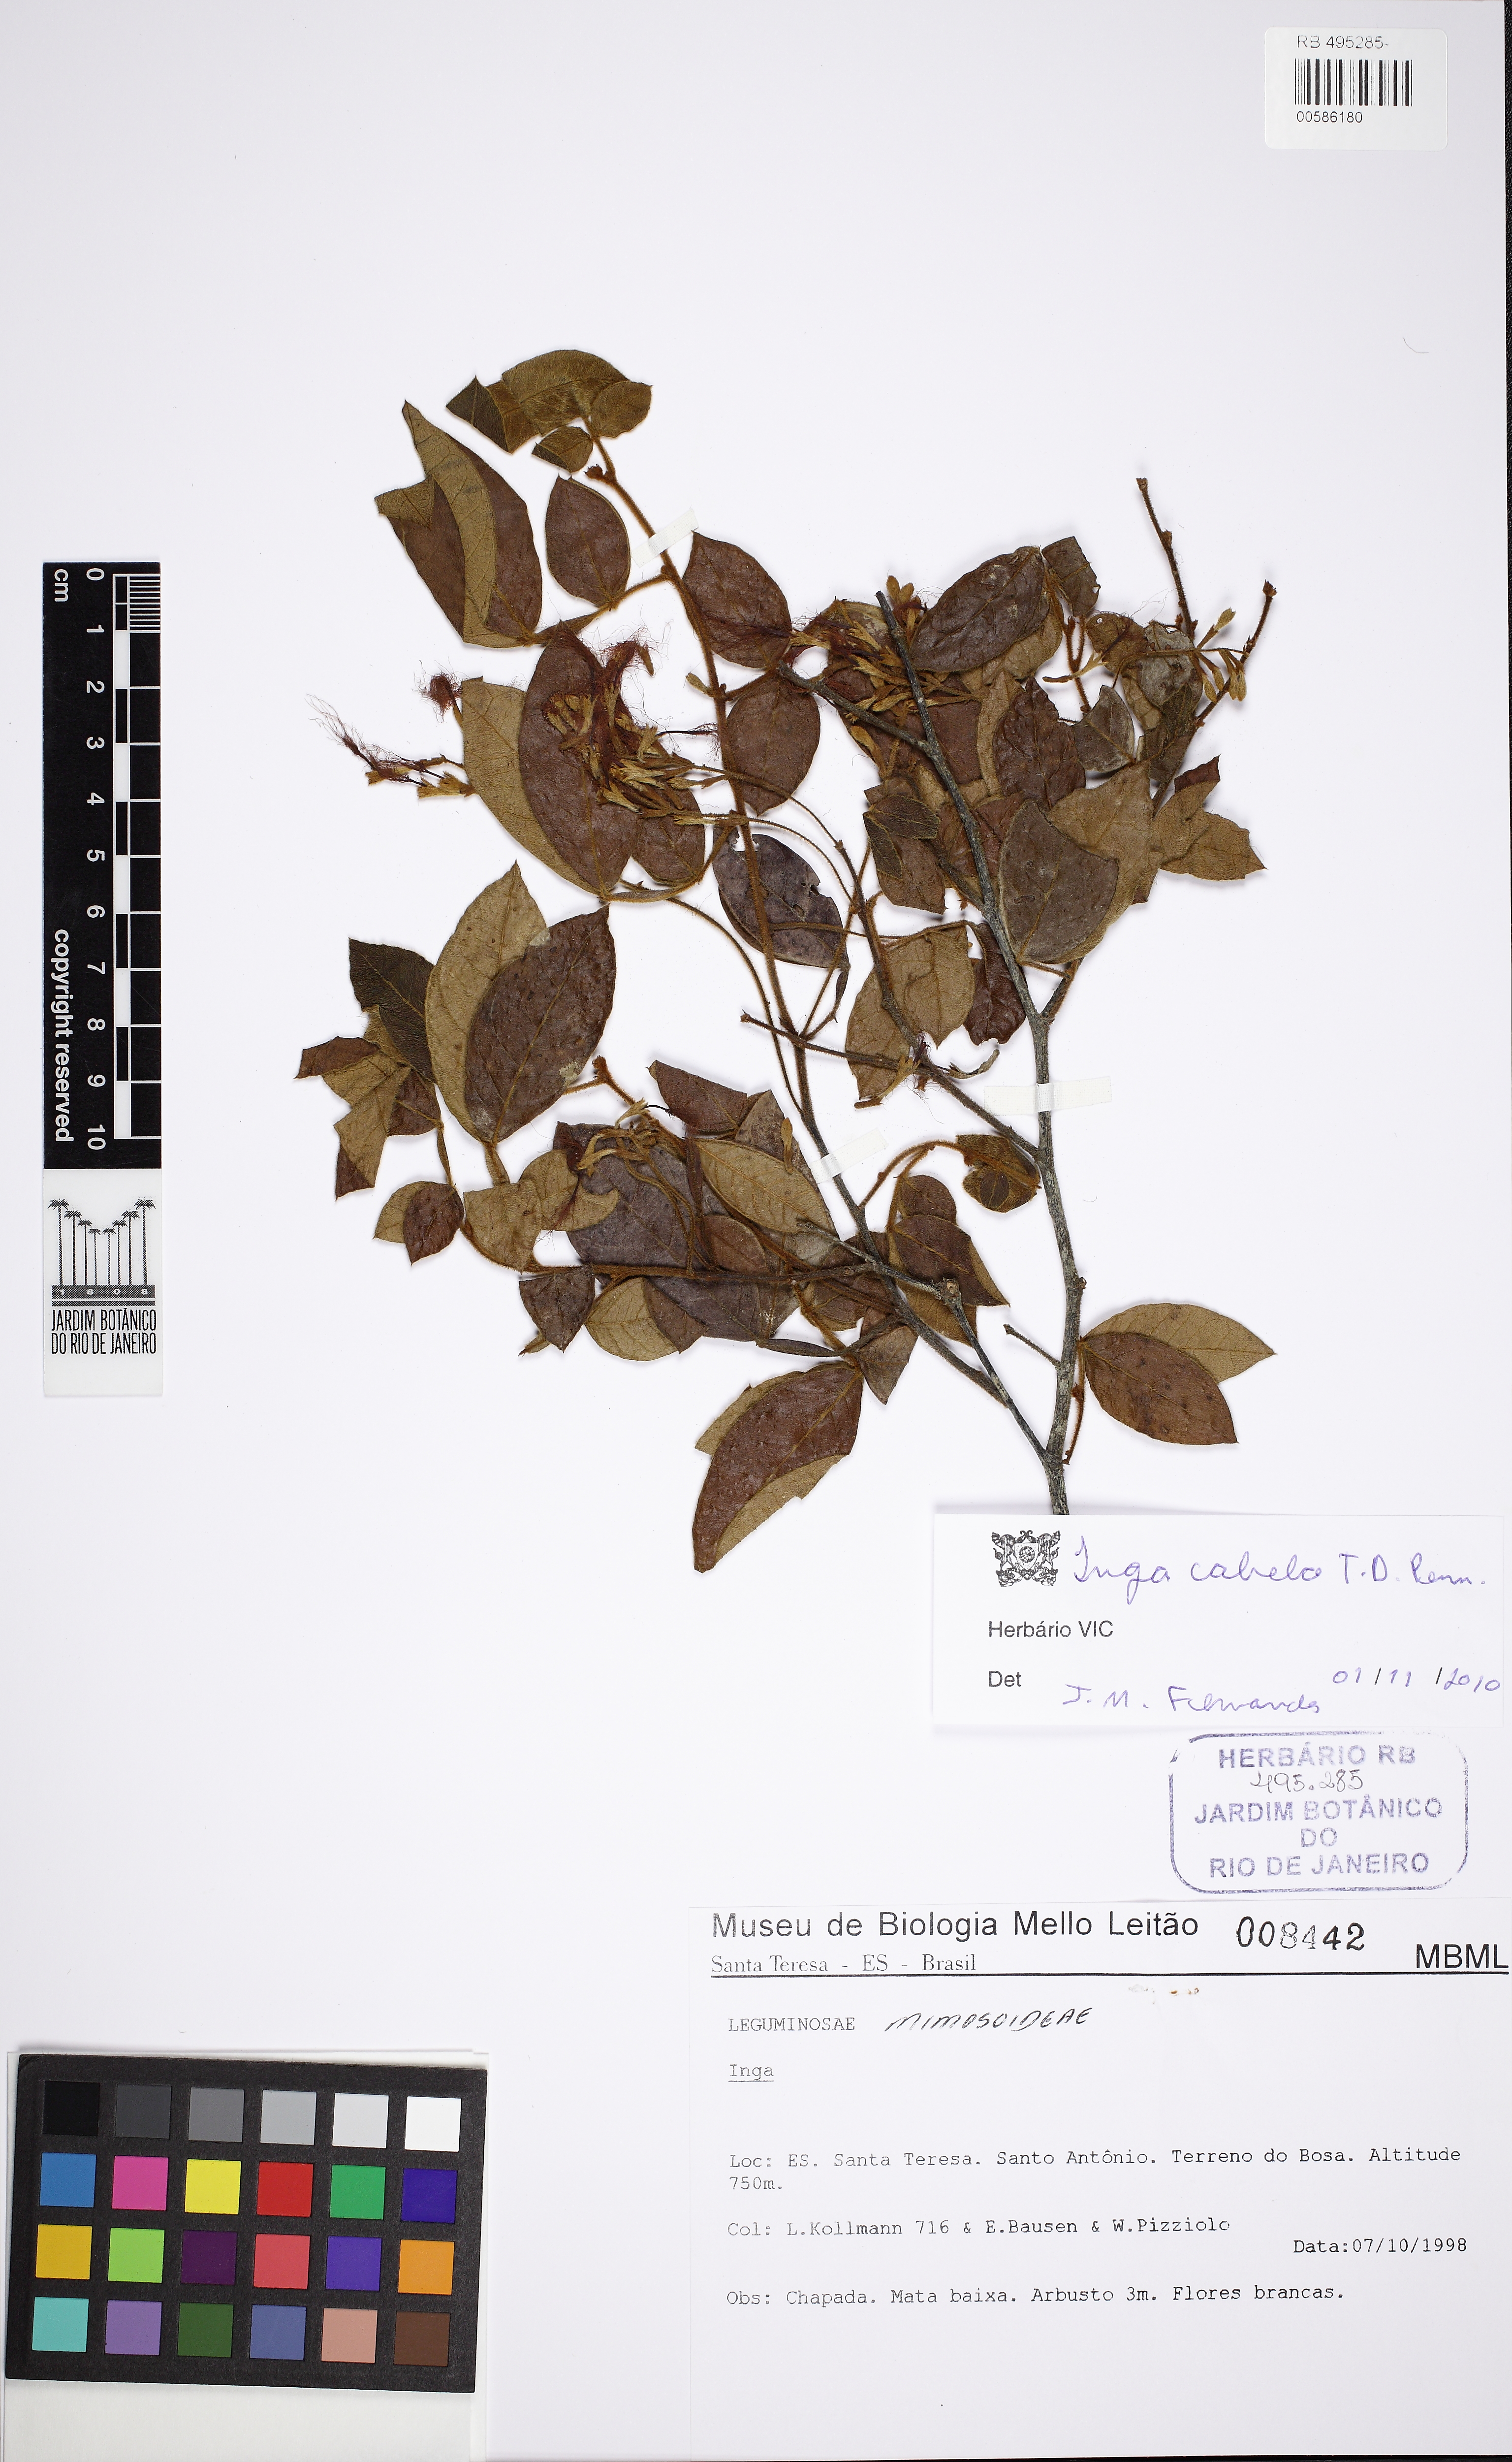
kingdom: Plantae
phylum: Tracheophyta
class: Magnoliopsida
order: Fabales
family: Fabaceae
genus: Inga
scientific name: Inga cabelo
